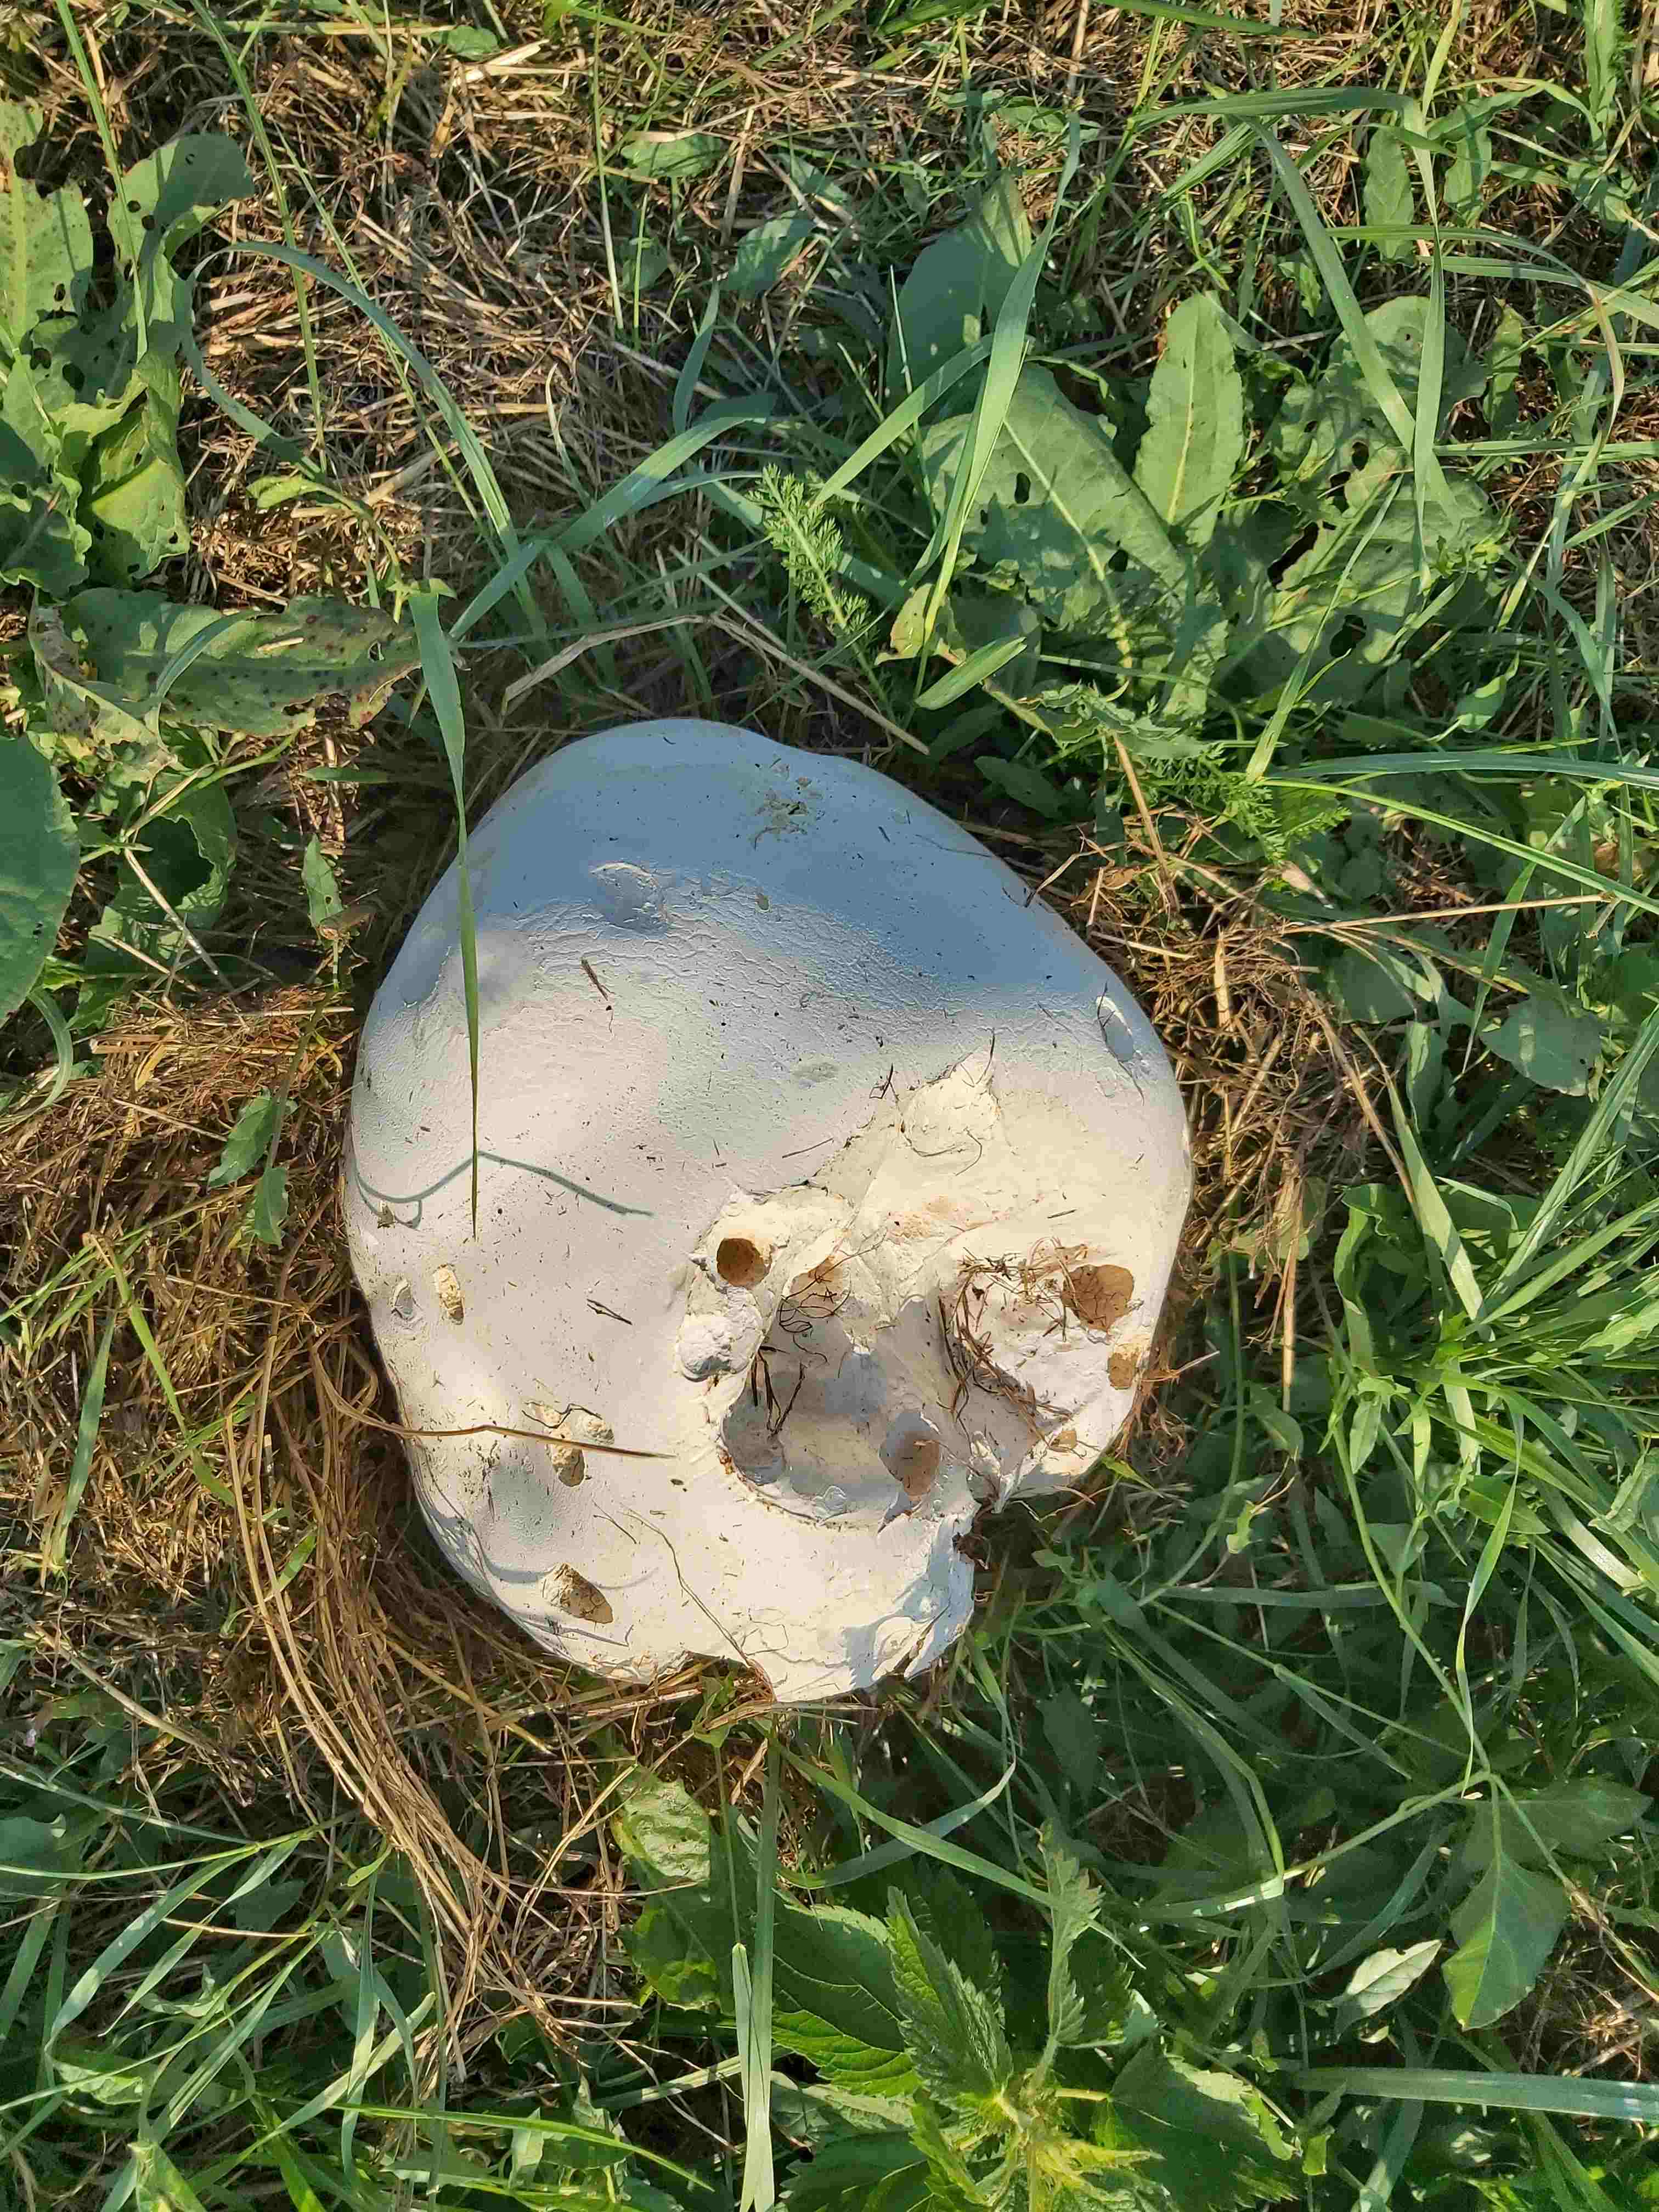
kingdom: Fungi
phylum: Basidiomycota
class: Agaricomycetes
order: Agaricales
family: Lycoperdaceae
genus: Calvatia
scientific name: Calvatia gigantea
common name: kæmpestøvbold
